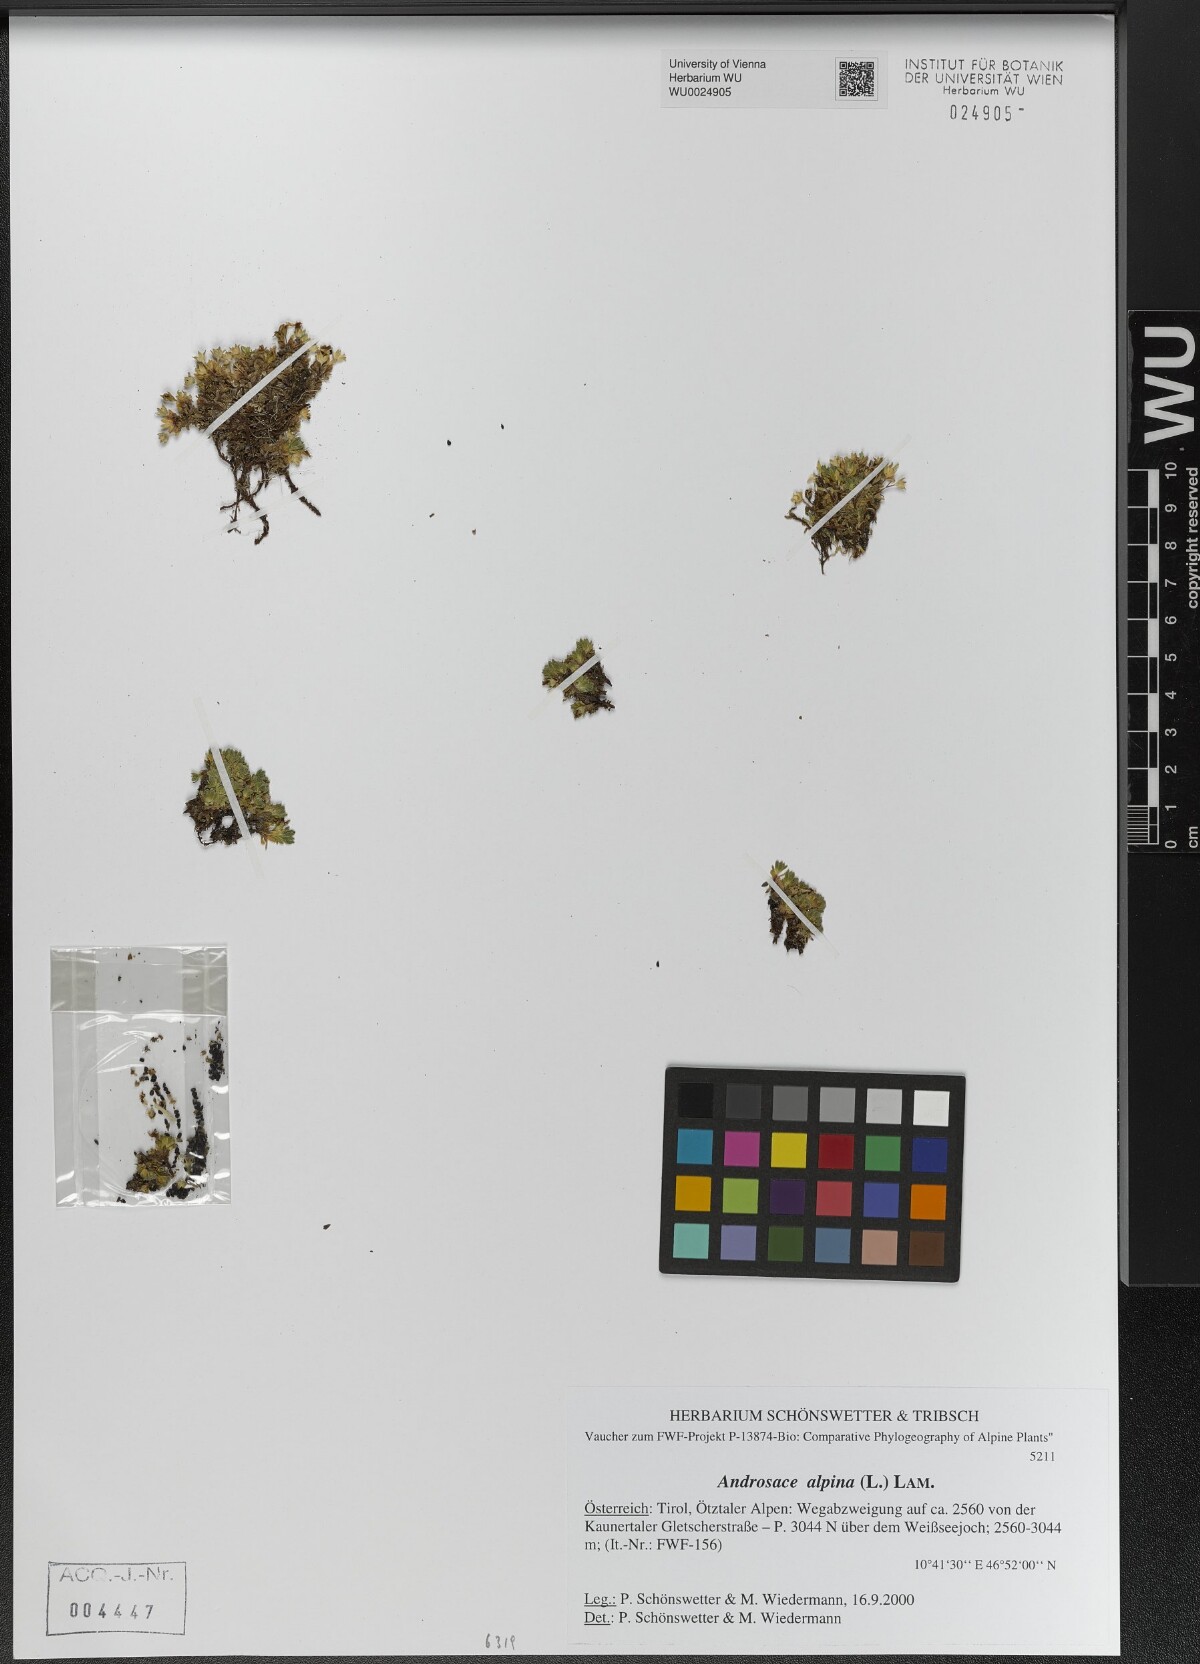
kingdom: Plantae
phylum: Tracheophyta
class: Magnoliopsida
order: Ericales
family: Primulaceae
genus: Androsace
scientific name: Androsace alpina
